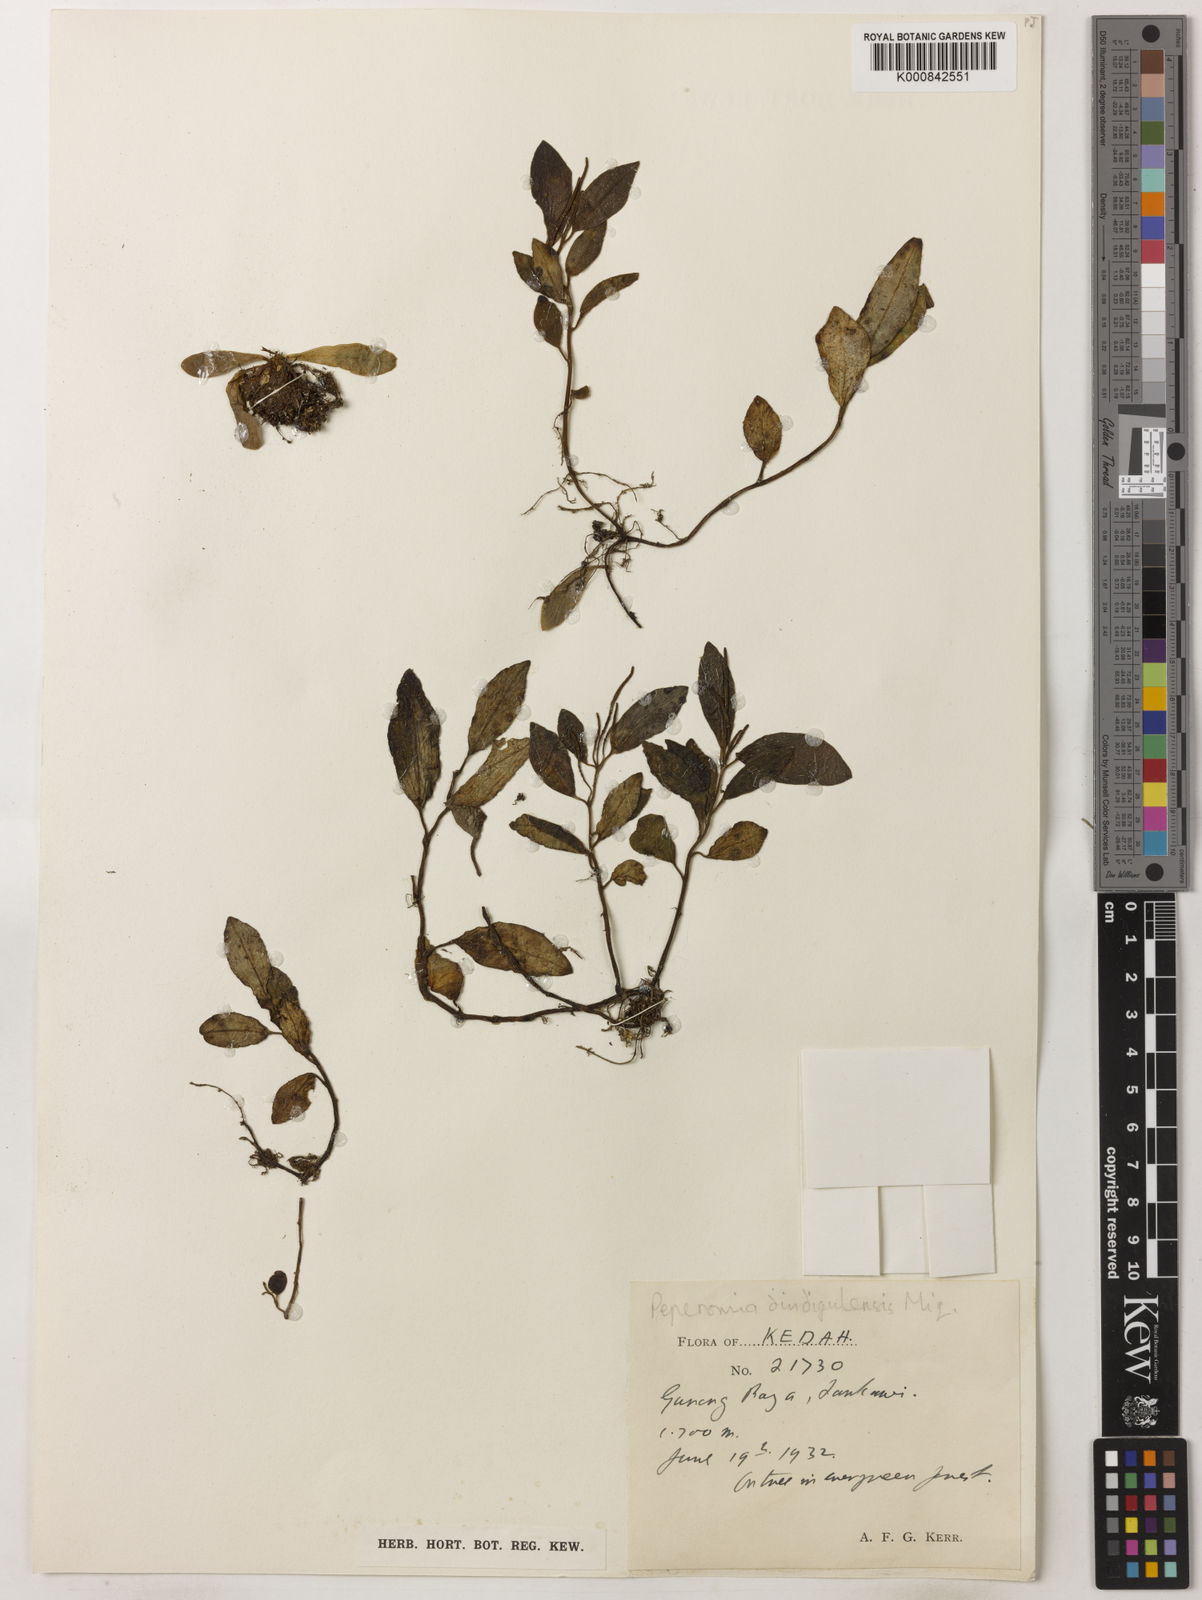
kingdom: Plantae
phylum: Tracheophyta
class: Magnoliopsida
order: Piperales
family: Piperaceae
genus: Peperomia
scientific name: Peperomia decumbens
